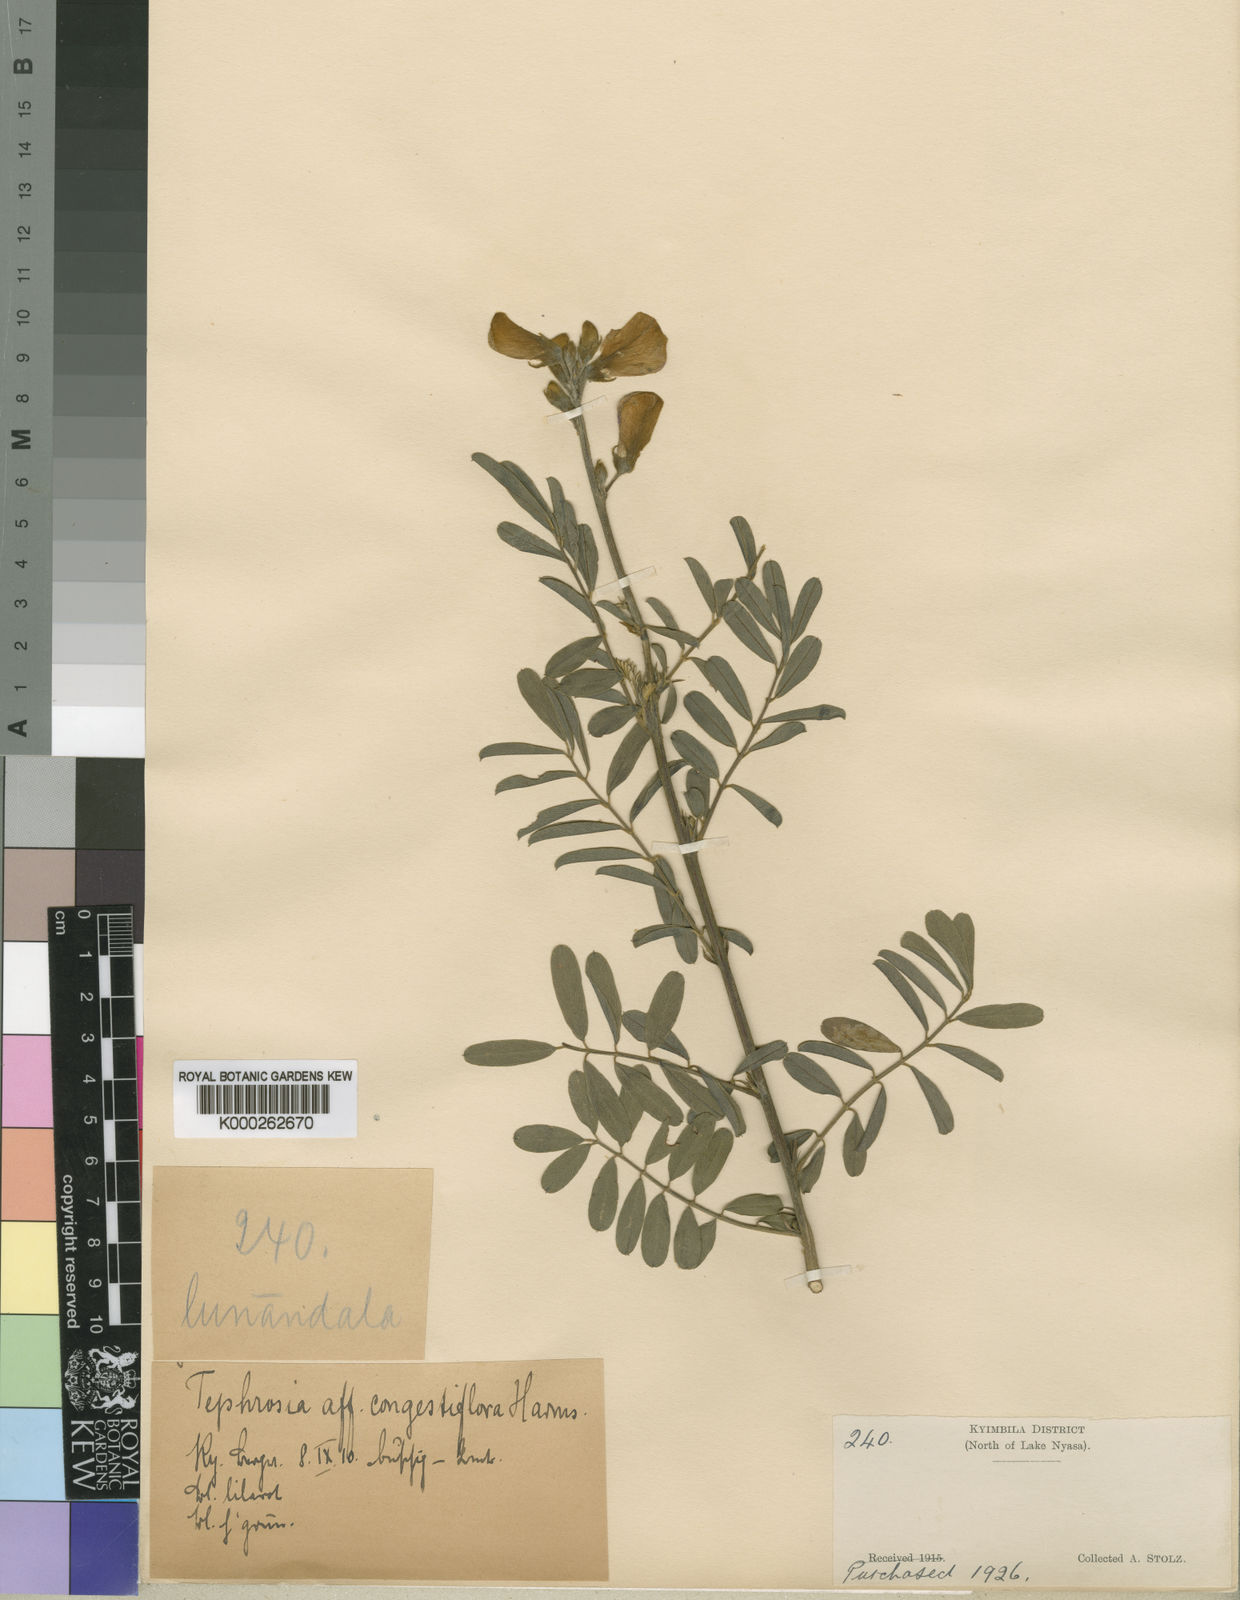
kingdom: Plantae
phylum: Tracheophyta
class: Magnoliopsida
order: Fabales
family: Fabaceae
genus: Tephrosia
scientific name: Tephrosia interrupta
